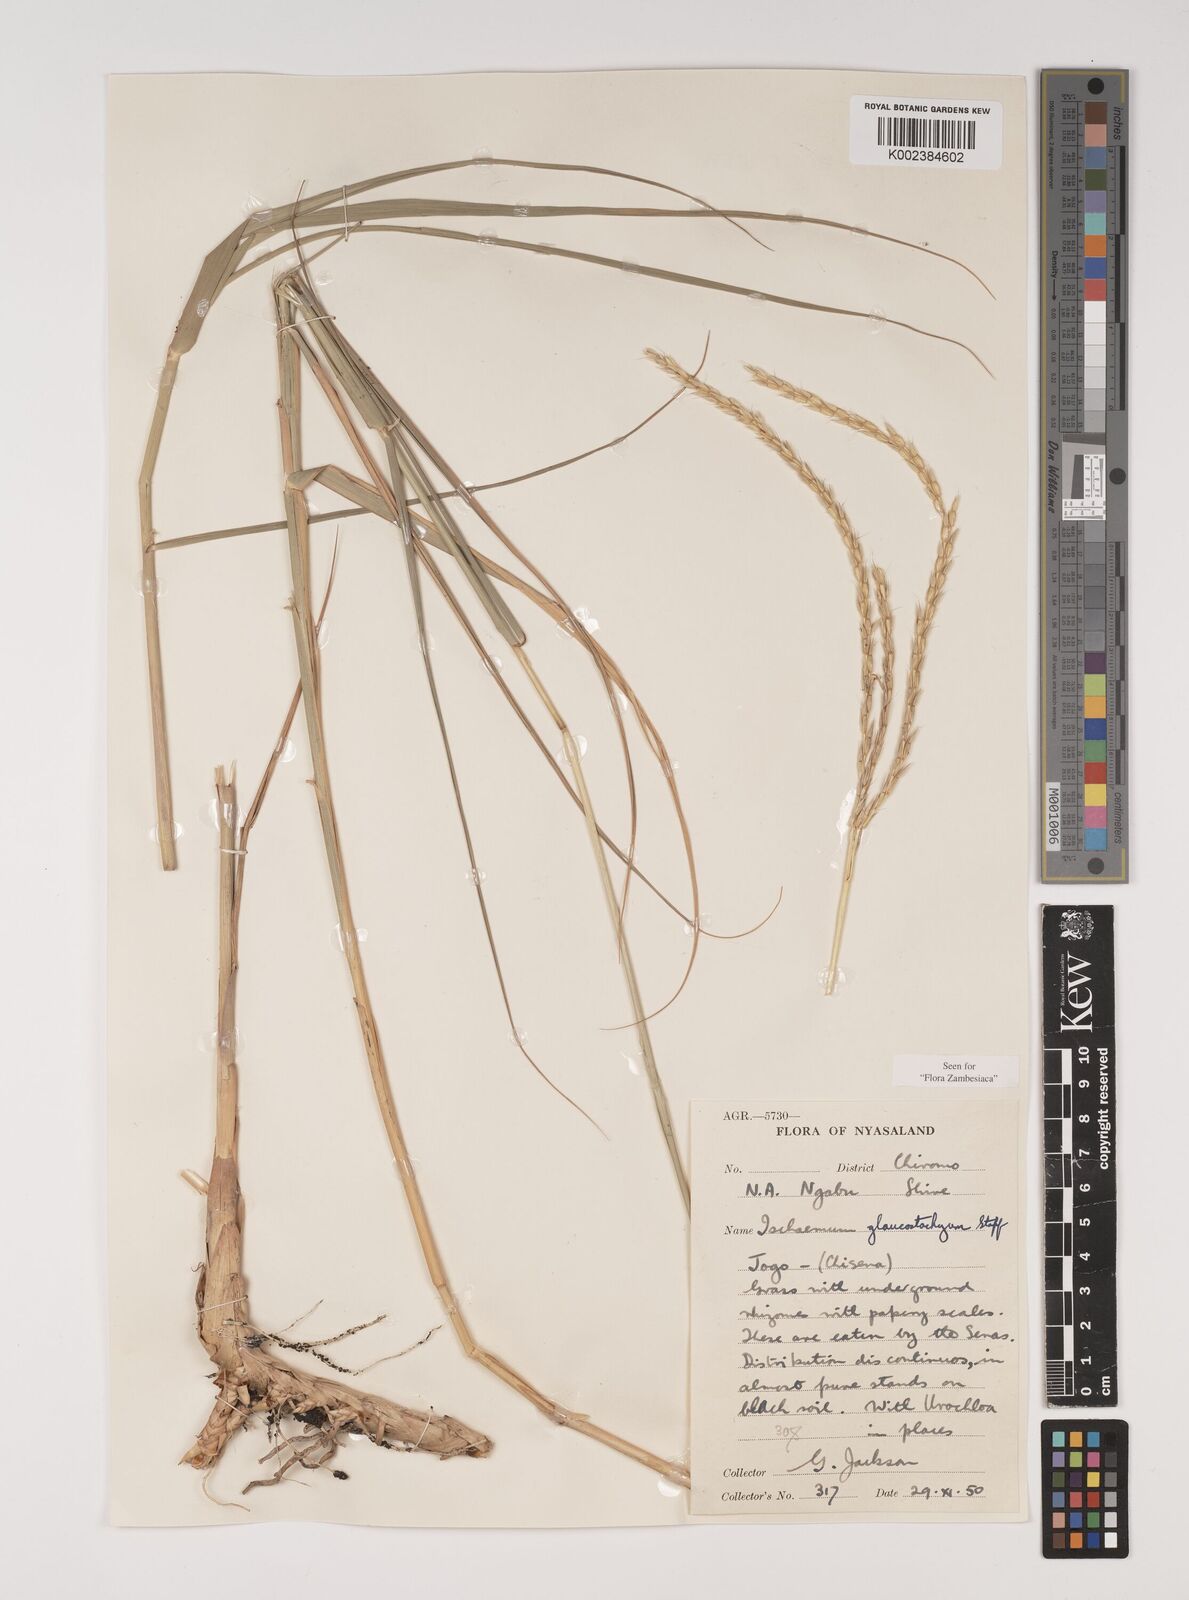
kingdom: Plantae
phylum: Tracheophyta
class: Liliopsida
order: Poales
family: Poaceae
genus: Ischaemum
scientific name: Ischaemum afrum
